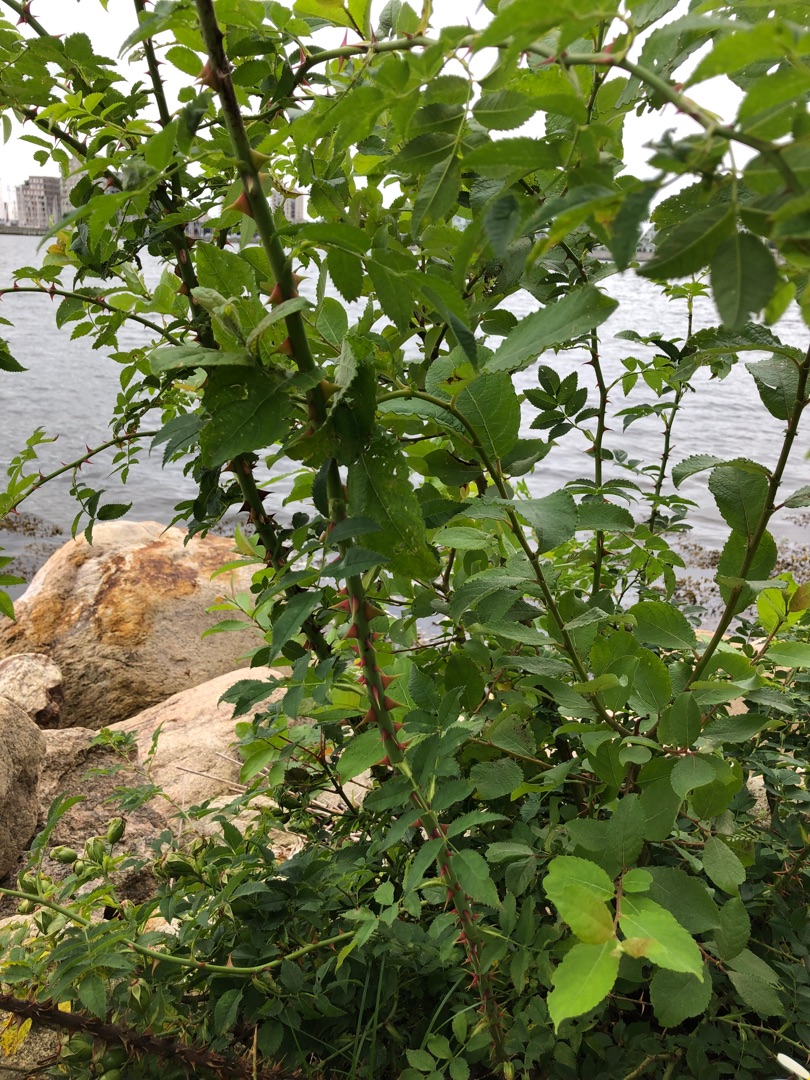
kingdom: Plantae
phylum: Tracheophyta
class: Magnoliopsida
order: Malpighiales
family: Salicaceae
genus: Salix
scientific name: Salix cinerea
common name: Grå-pil
